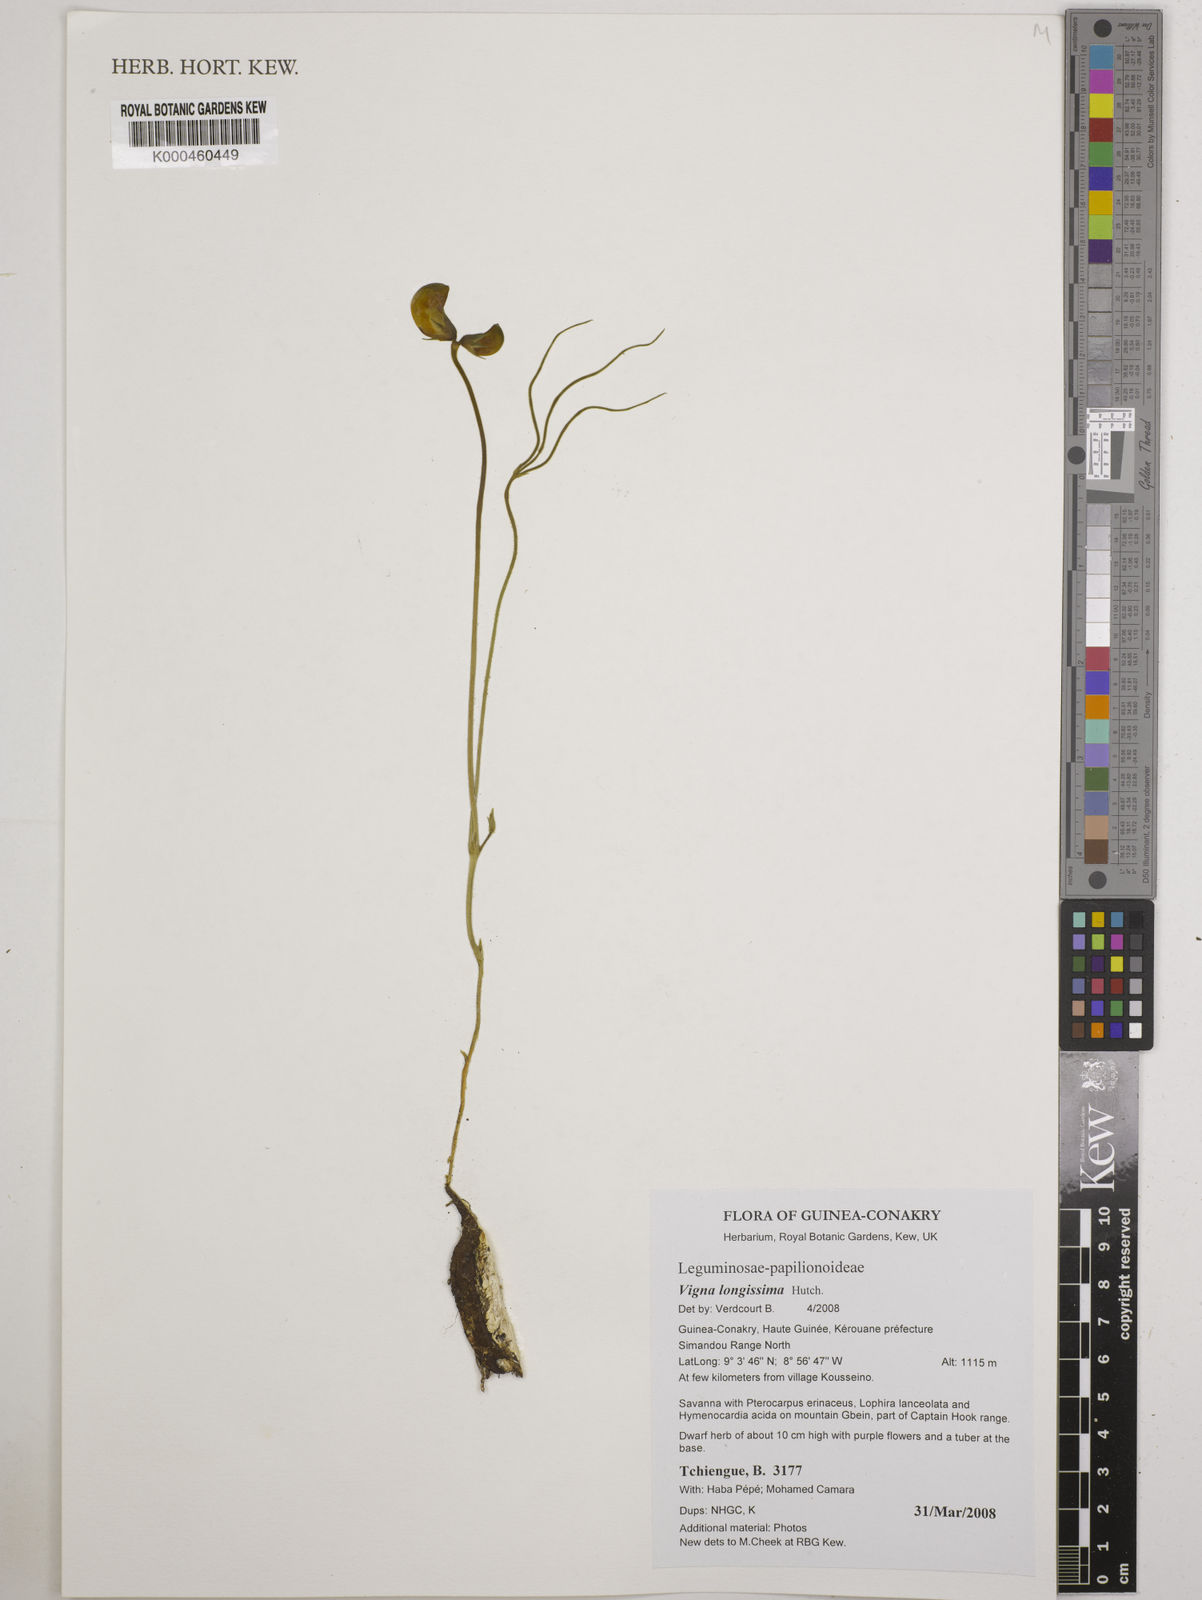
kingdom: Plantae
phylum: Tracheophyta
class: Magnoliopsida
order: Fabales
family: Fabaceae
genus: Vigna
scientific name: Vigna longissima
